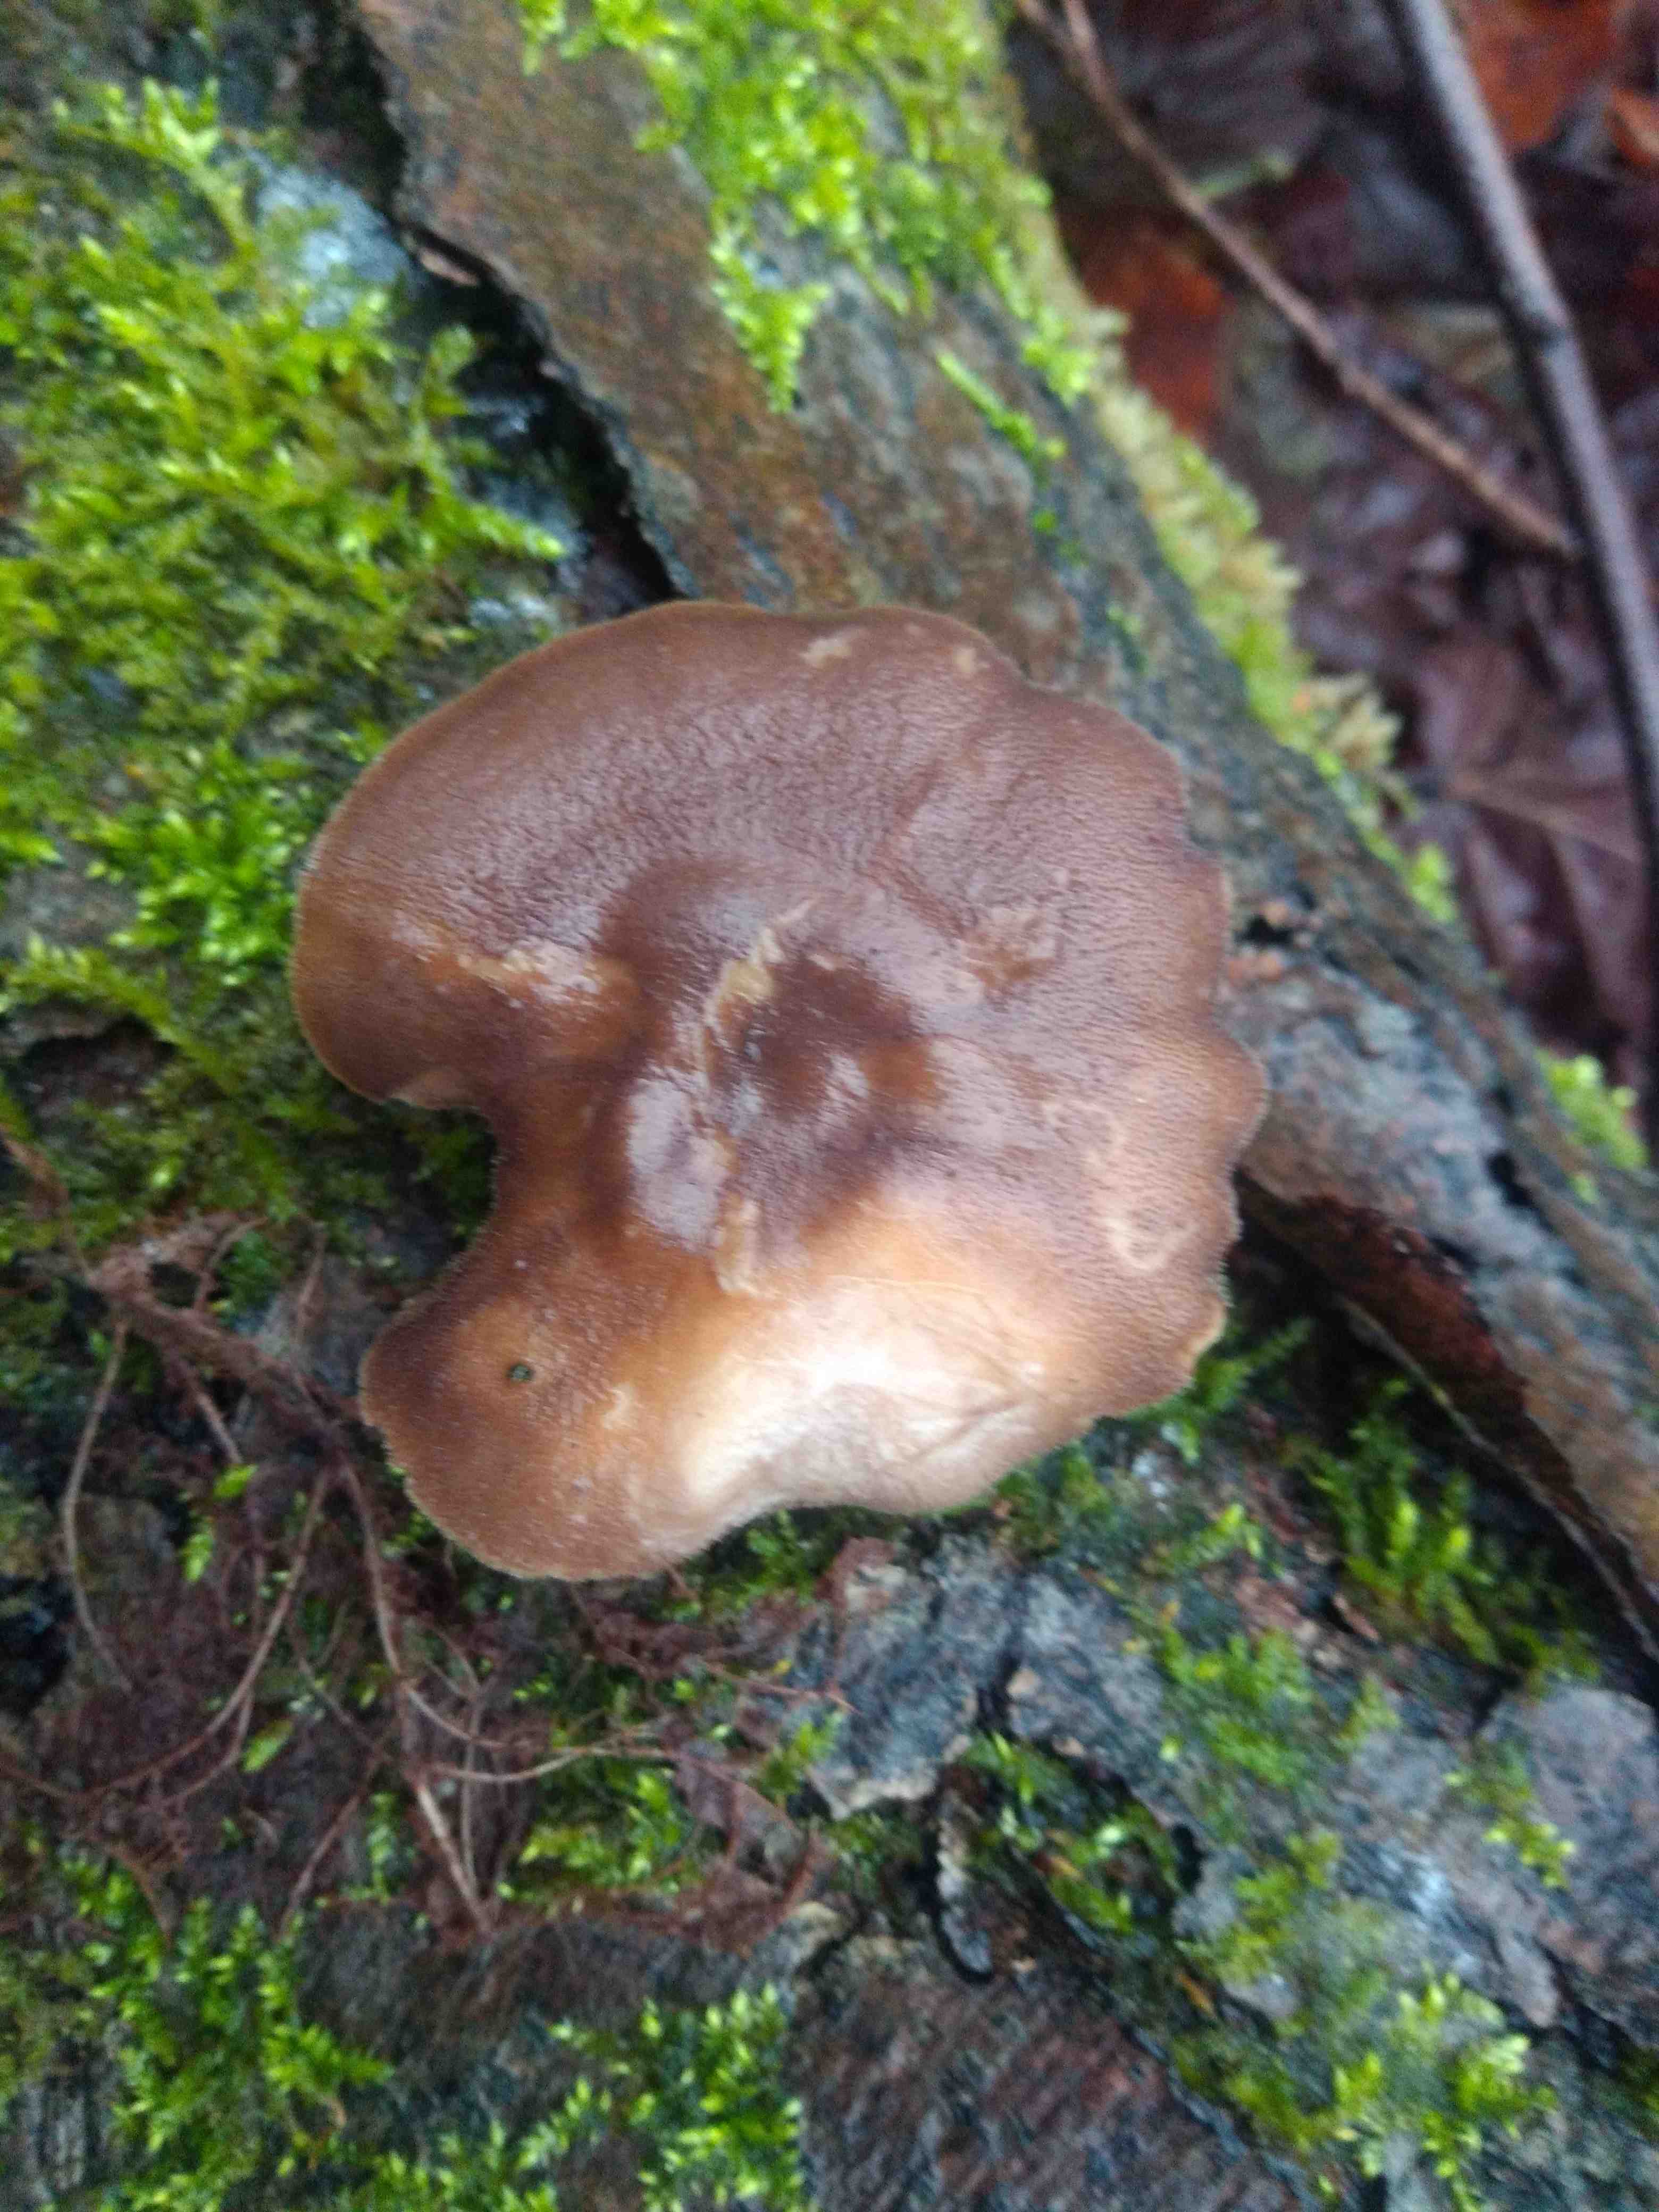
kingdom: Fungi
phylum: Basidiomycota
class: Agaricomycetes
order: Polyporales
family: Polyporaceae
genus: Lentinus
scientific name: Lentinus brumalis
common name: vinter-stilkporesvamp
